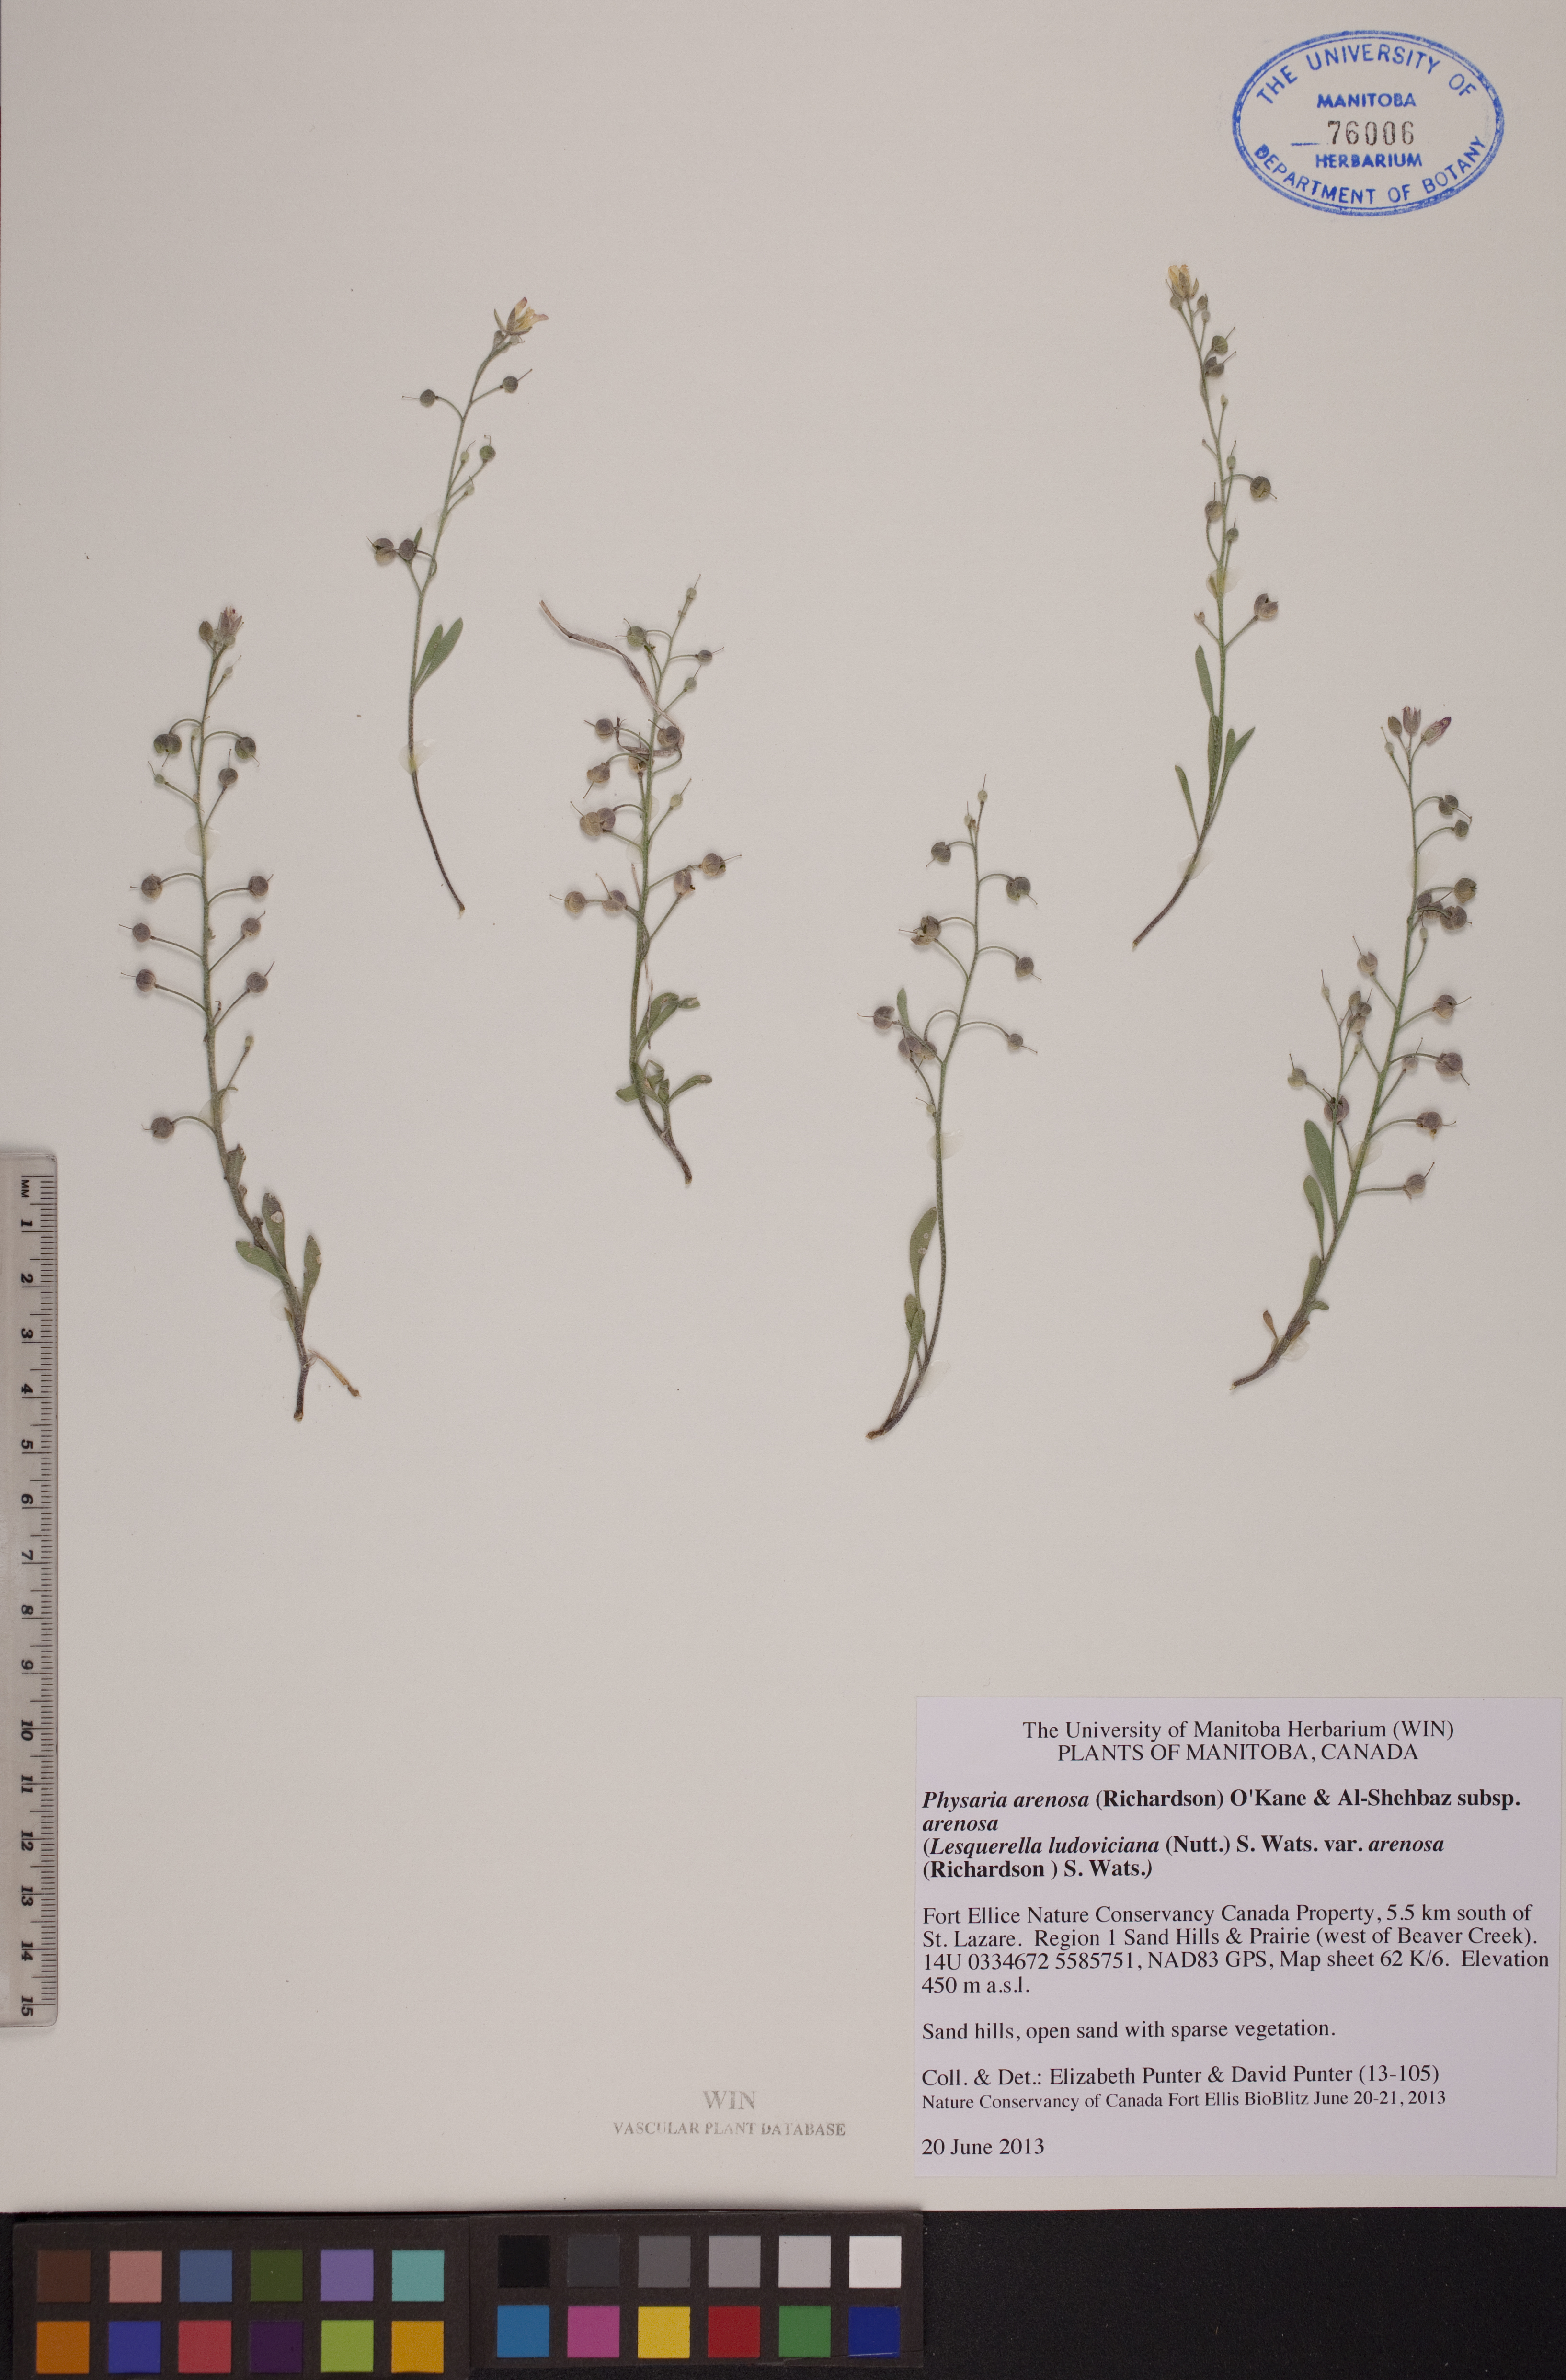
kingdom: Plantae
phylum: Tracheophyta
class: Magnoliopsida
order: Brassicales
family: Brassicaceae
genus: Physaria
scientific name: Physaria arenosa
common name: Great plains bladderpod
